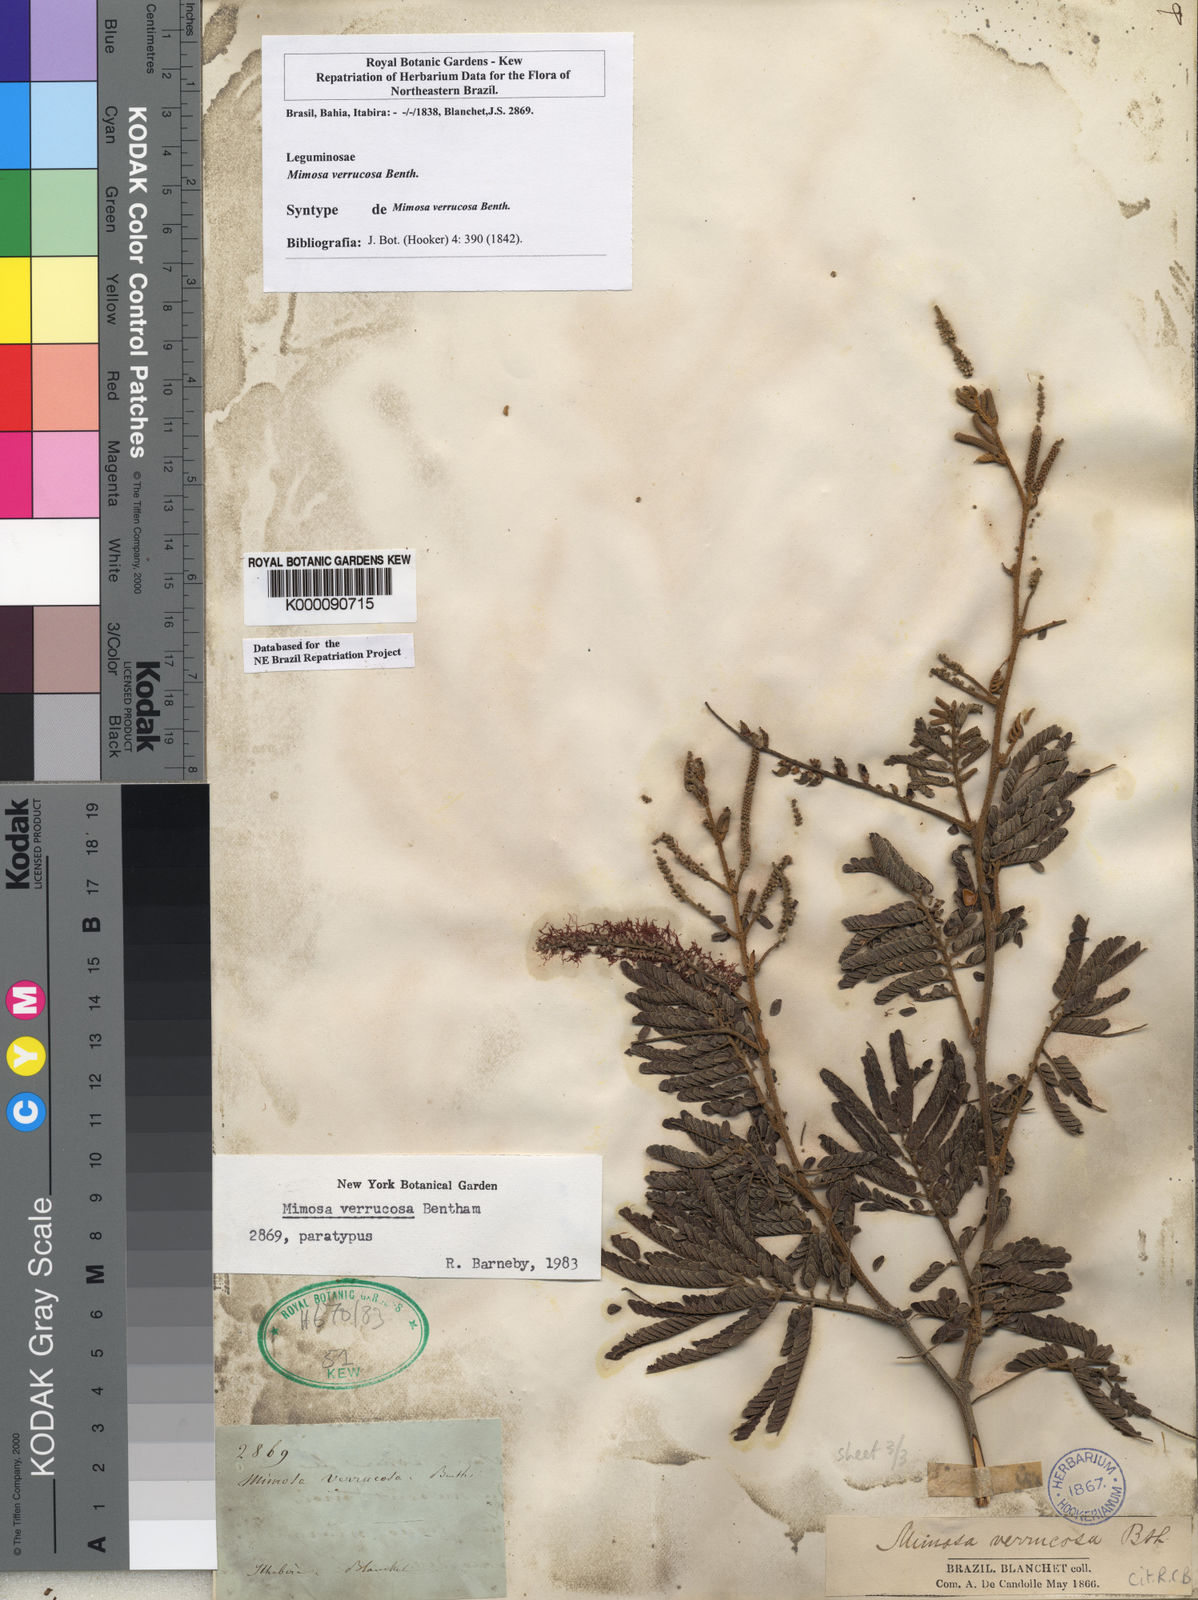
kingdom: Plantae
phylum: Tracheophyta
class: Magnoliopsida
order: Fabales
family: Fabaceae
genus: Mimosa
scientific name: Mimosa verrucosa
